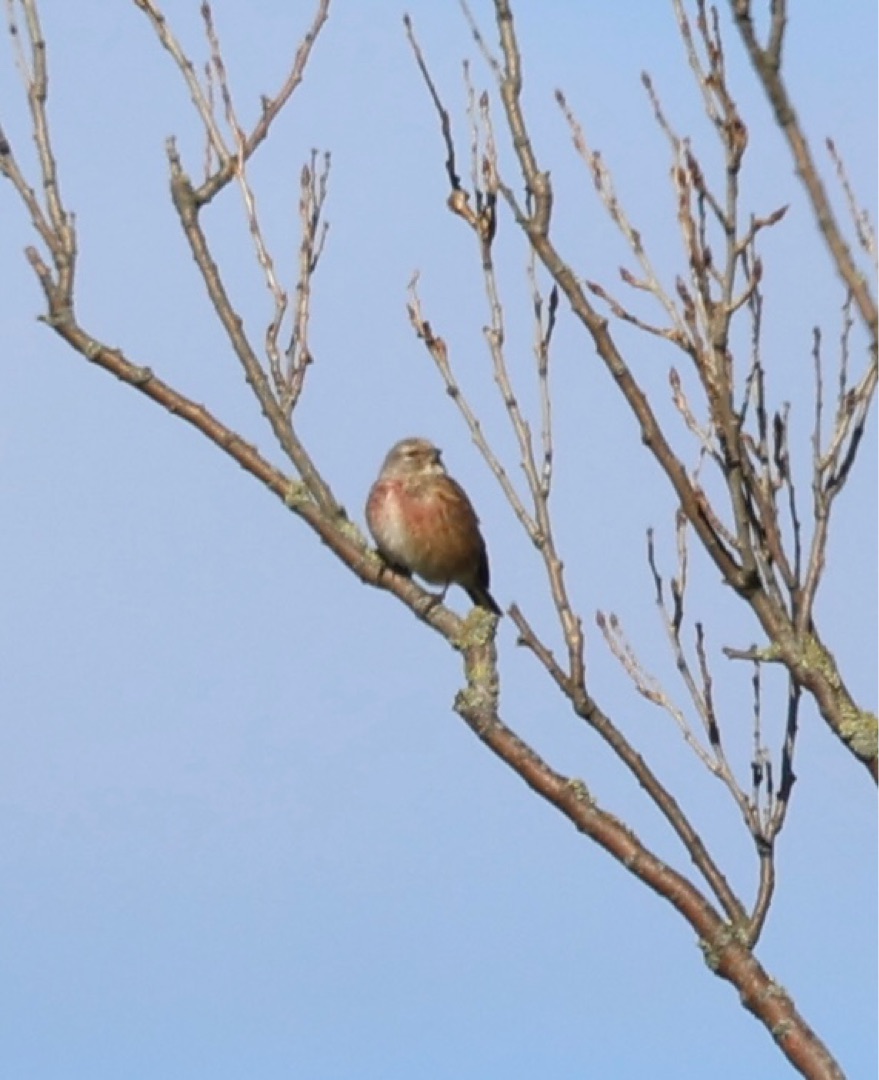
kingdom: Animalia
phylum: Chordata
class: Aves
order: Passeriformes
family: Fringillidae
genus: Linaria
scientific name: Linaria cannabina
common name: Tornirisk
